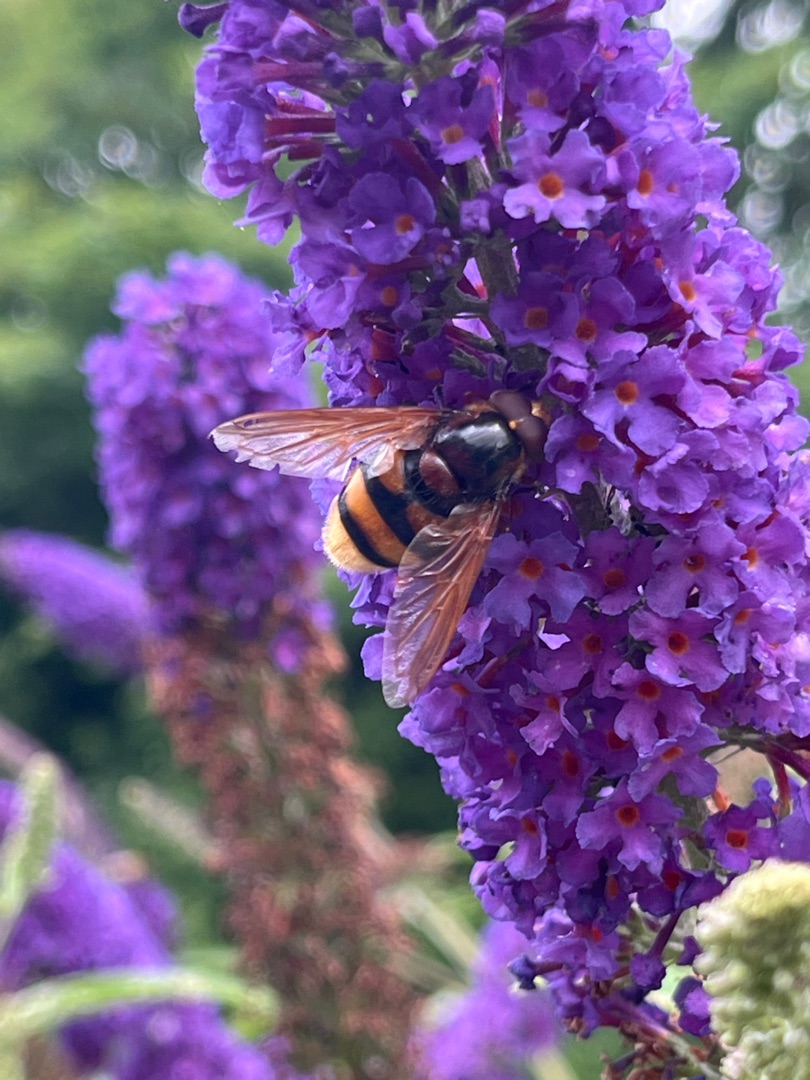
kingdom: Animalia
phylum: Arthropoda
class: Insecta
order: Diptera
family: Syrphidae
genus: Volucella
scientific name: Volucella zonaria
